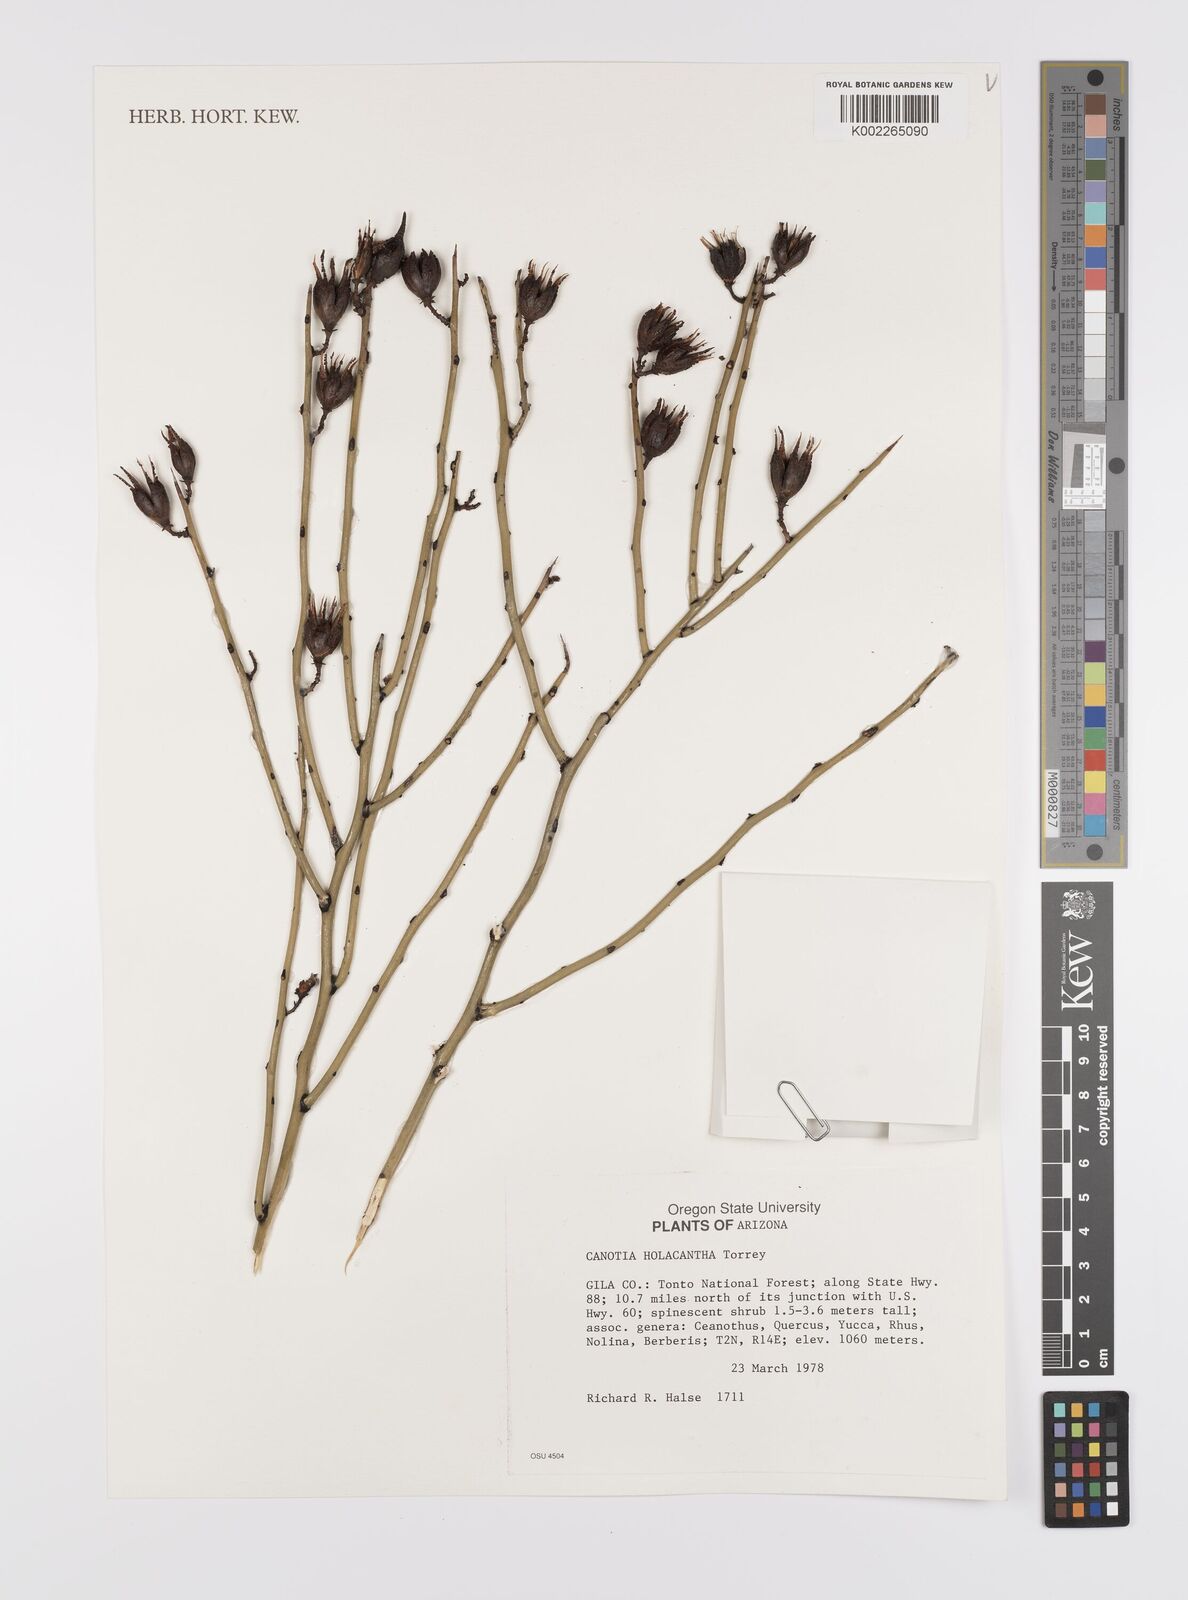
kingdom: Plantae
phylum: Tracheophyta
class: Magnoliopsida
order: Celastrales
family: Celastraceae
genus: Canotia
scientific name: Canotia holacantha
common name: Crucifixion thorns
